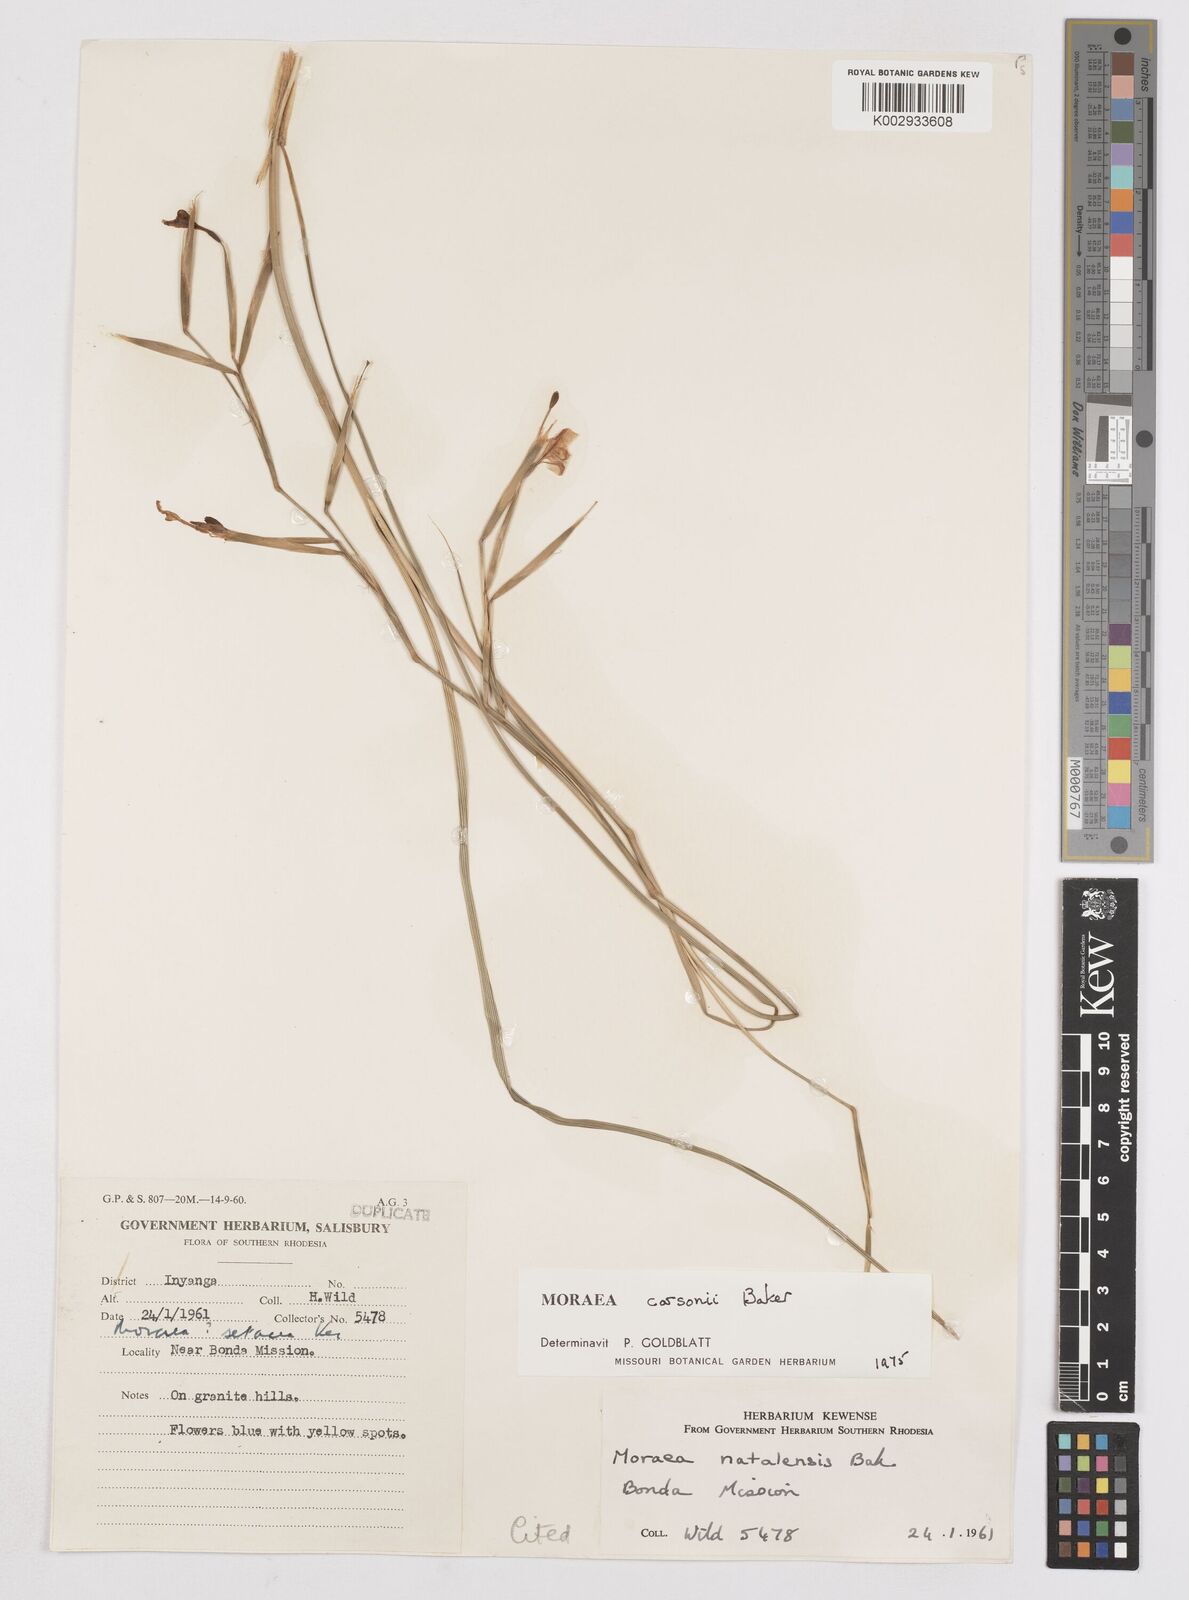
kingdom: Plantae
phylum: Tracheophyta
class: Liliopsida
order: Asparagales
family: Iridaceae
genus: Moraea
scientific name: Moraea carsonii
